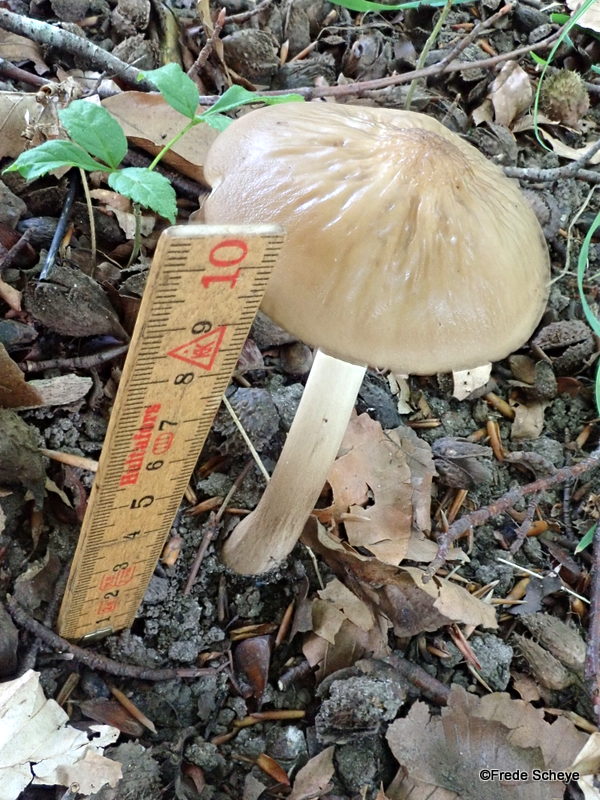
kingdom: Fungi
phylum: Basidiomycota
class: Agaricomycetes
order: Agaricales
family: Physalacriaceae
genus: Hymenopellis
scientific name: Hymenopellis radicata
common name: almindelig pælerodshat
